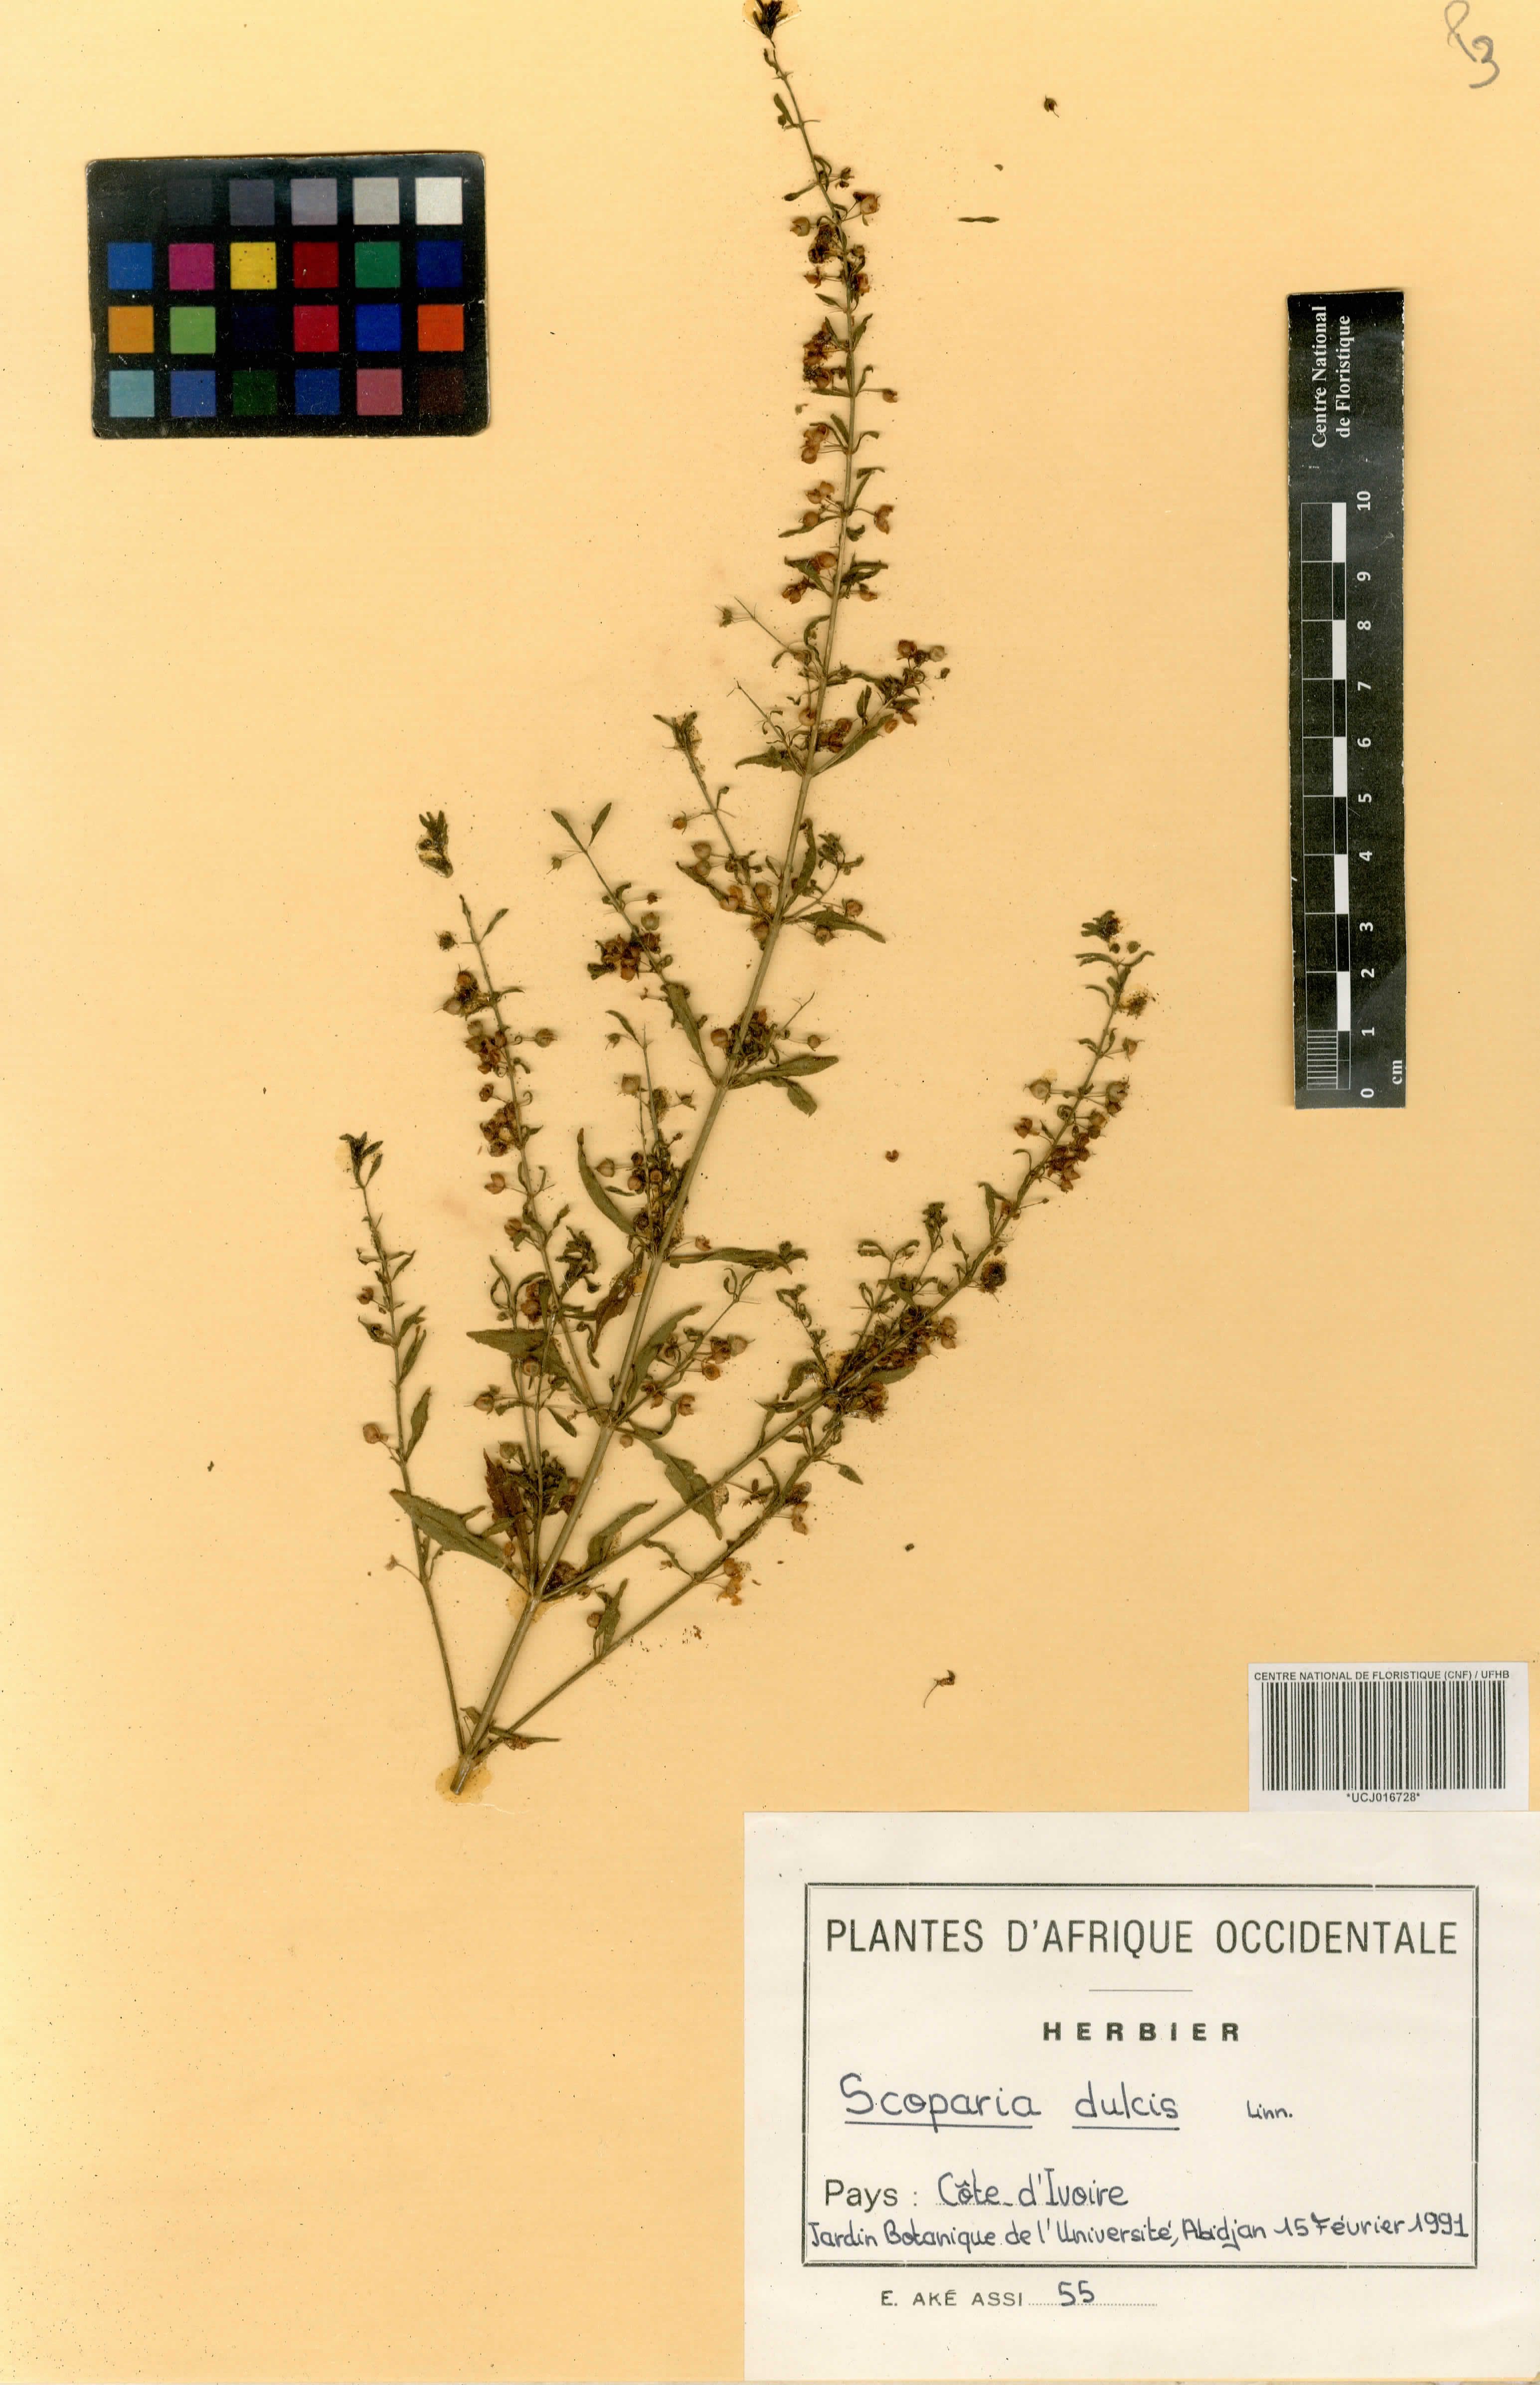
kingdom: Plantae
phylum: Tracheophyta
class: Magnoliopsida
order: Lamiales
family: Plantaginaceae
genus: Scoparia
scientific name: Scoparia dulcis
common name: Scoparia-weed
